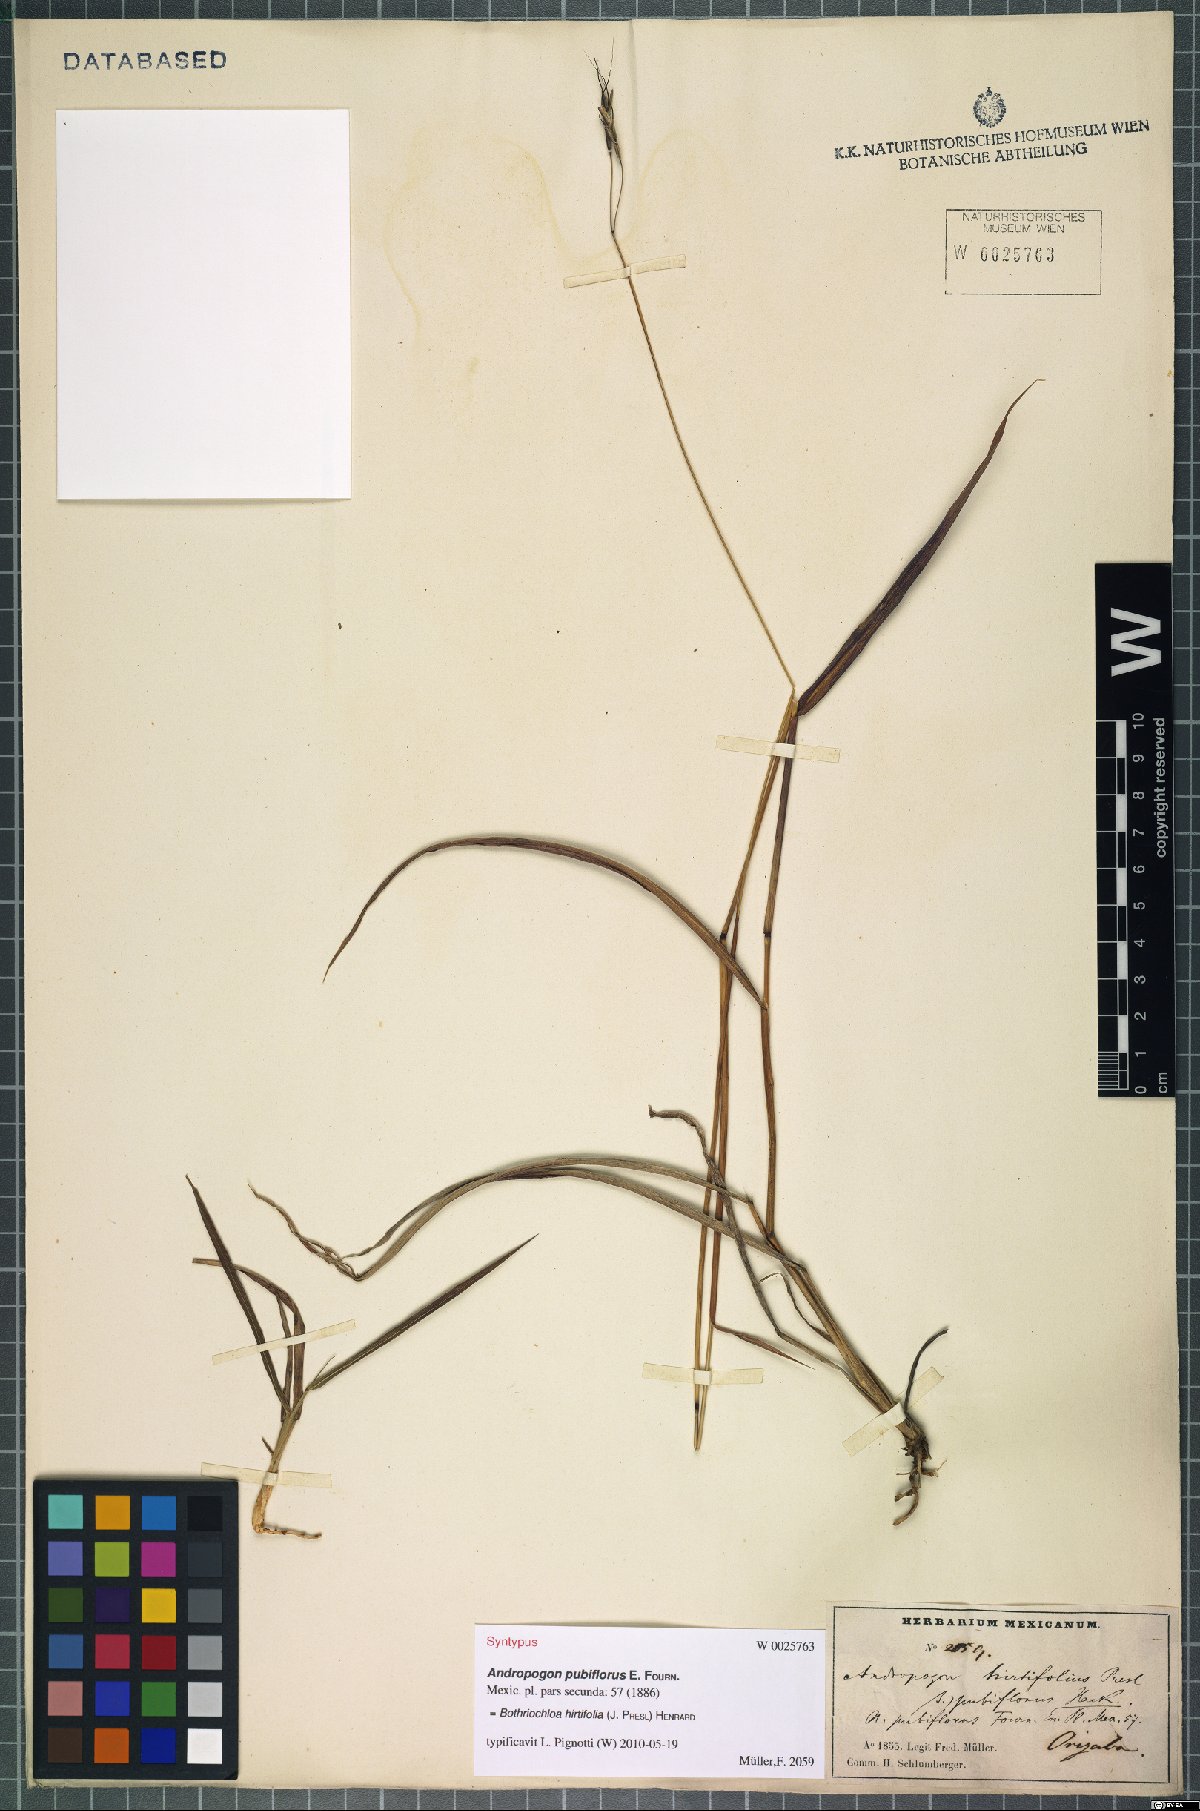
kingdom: Plantae
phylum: Tracheophyta
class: Liliopsida
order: Poales
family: Poaceae
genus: Bothriochloa
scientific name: Bothriochloa hirtifolia
